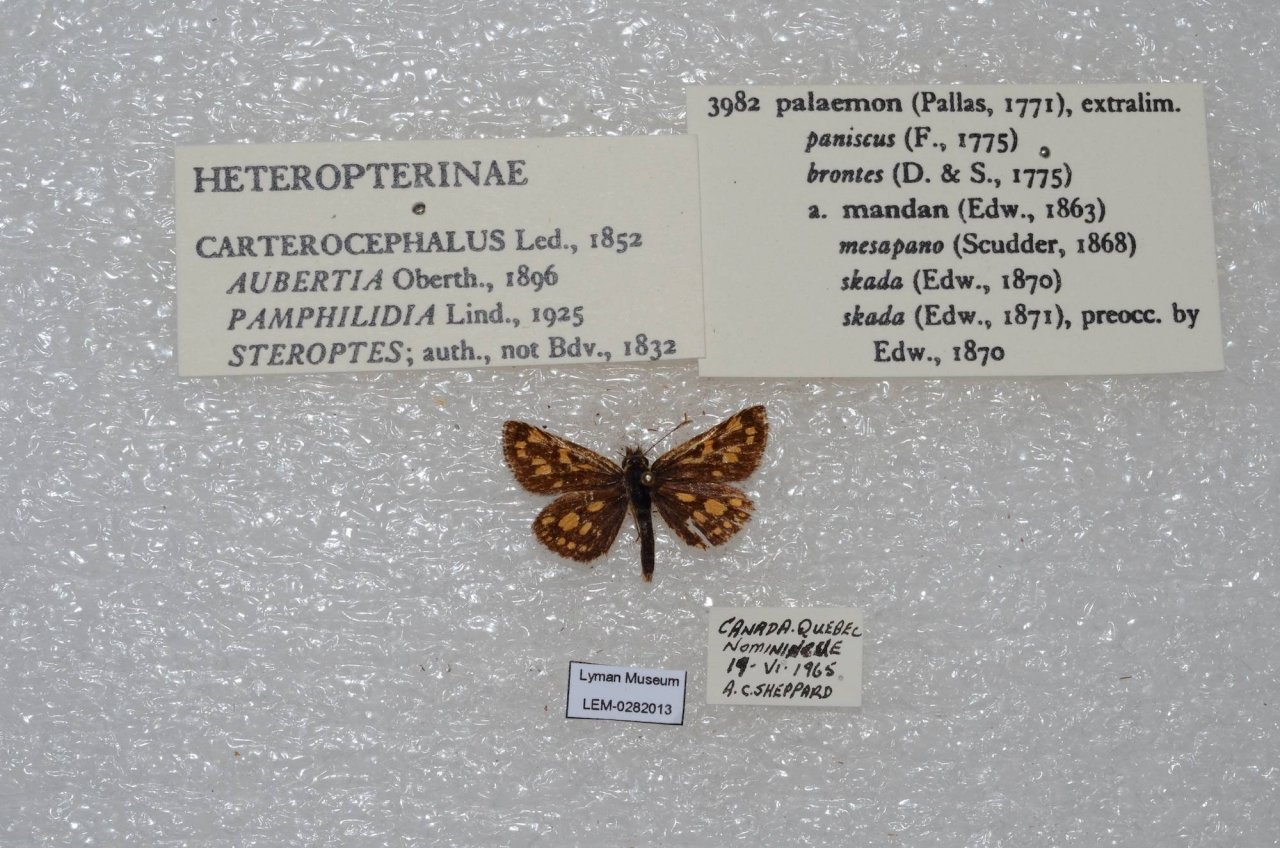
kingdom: Animalia
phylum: Arthropoda
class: Insecta
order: Lepidoptera
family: Hesperiidae
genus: Carterocephalus
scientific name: Carterocephalus palaemon
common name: Chequered Skipper
